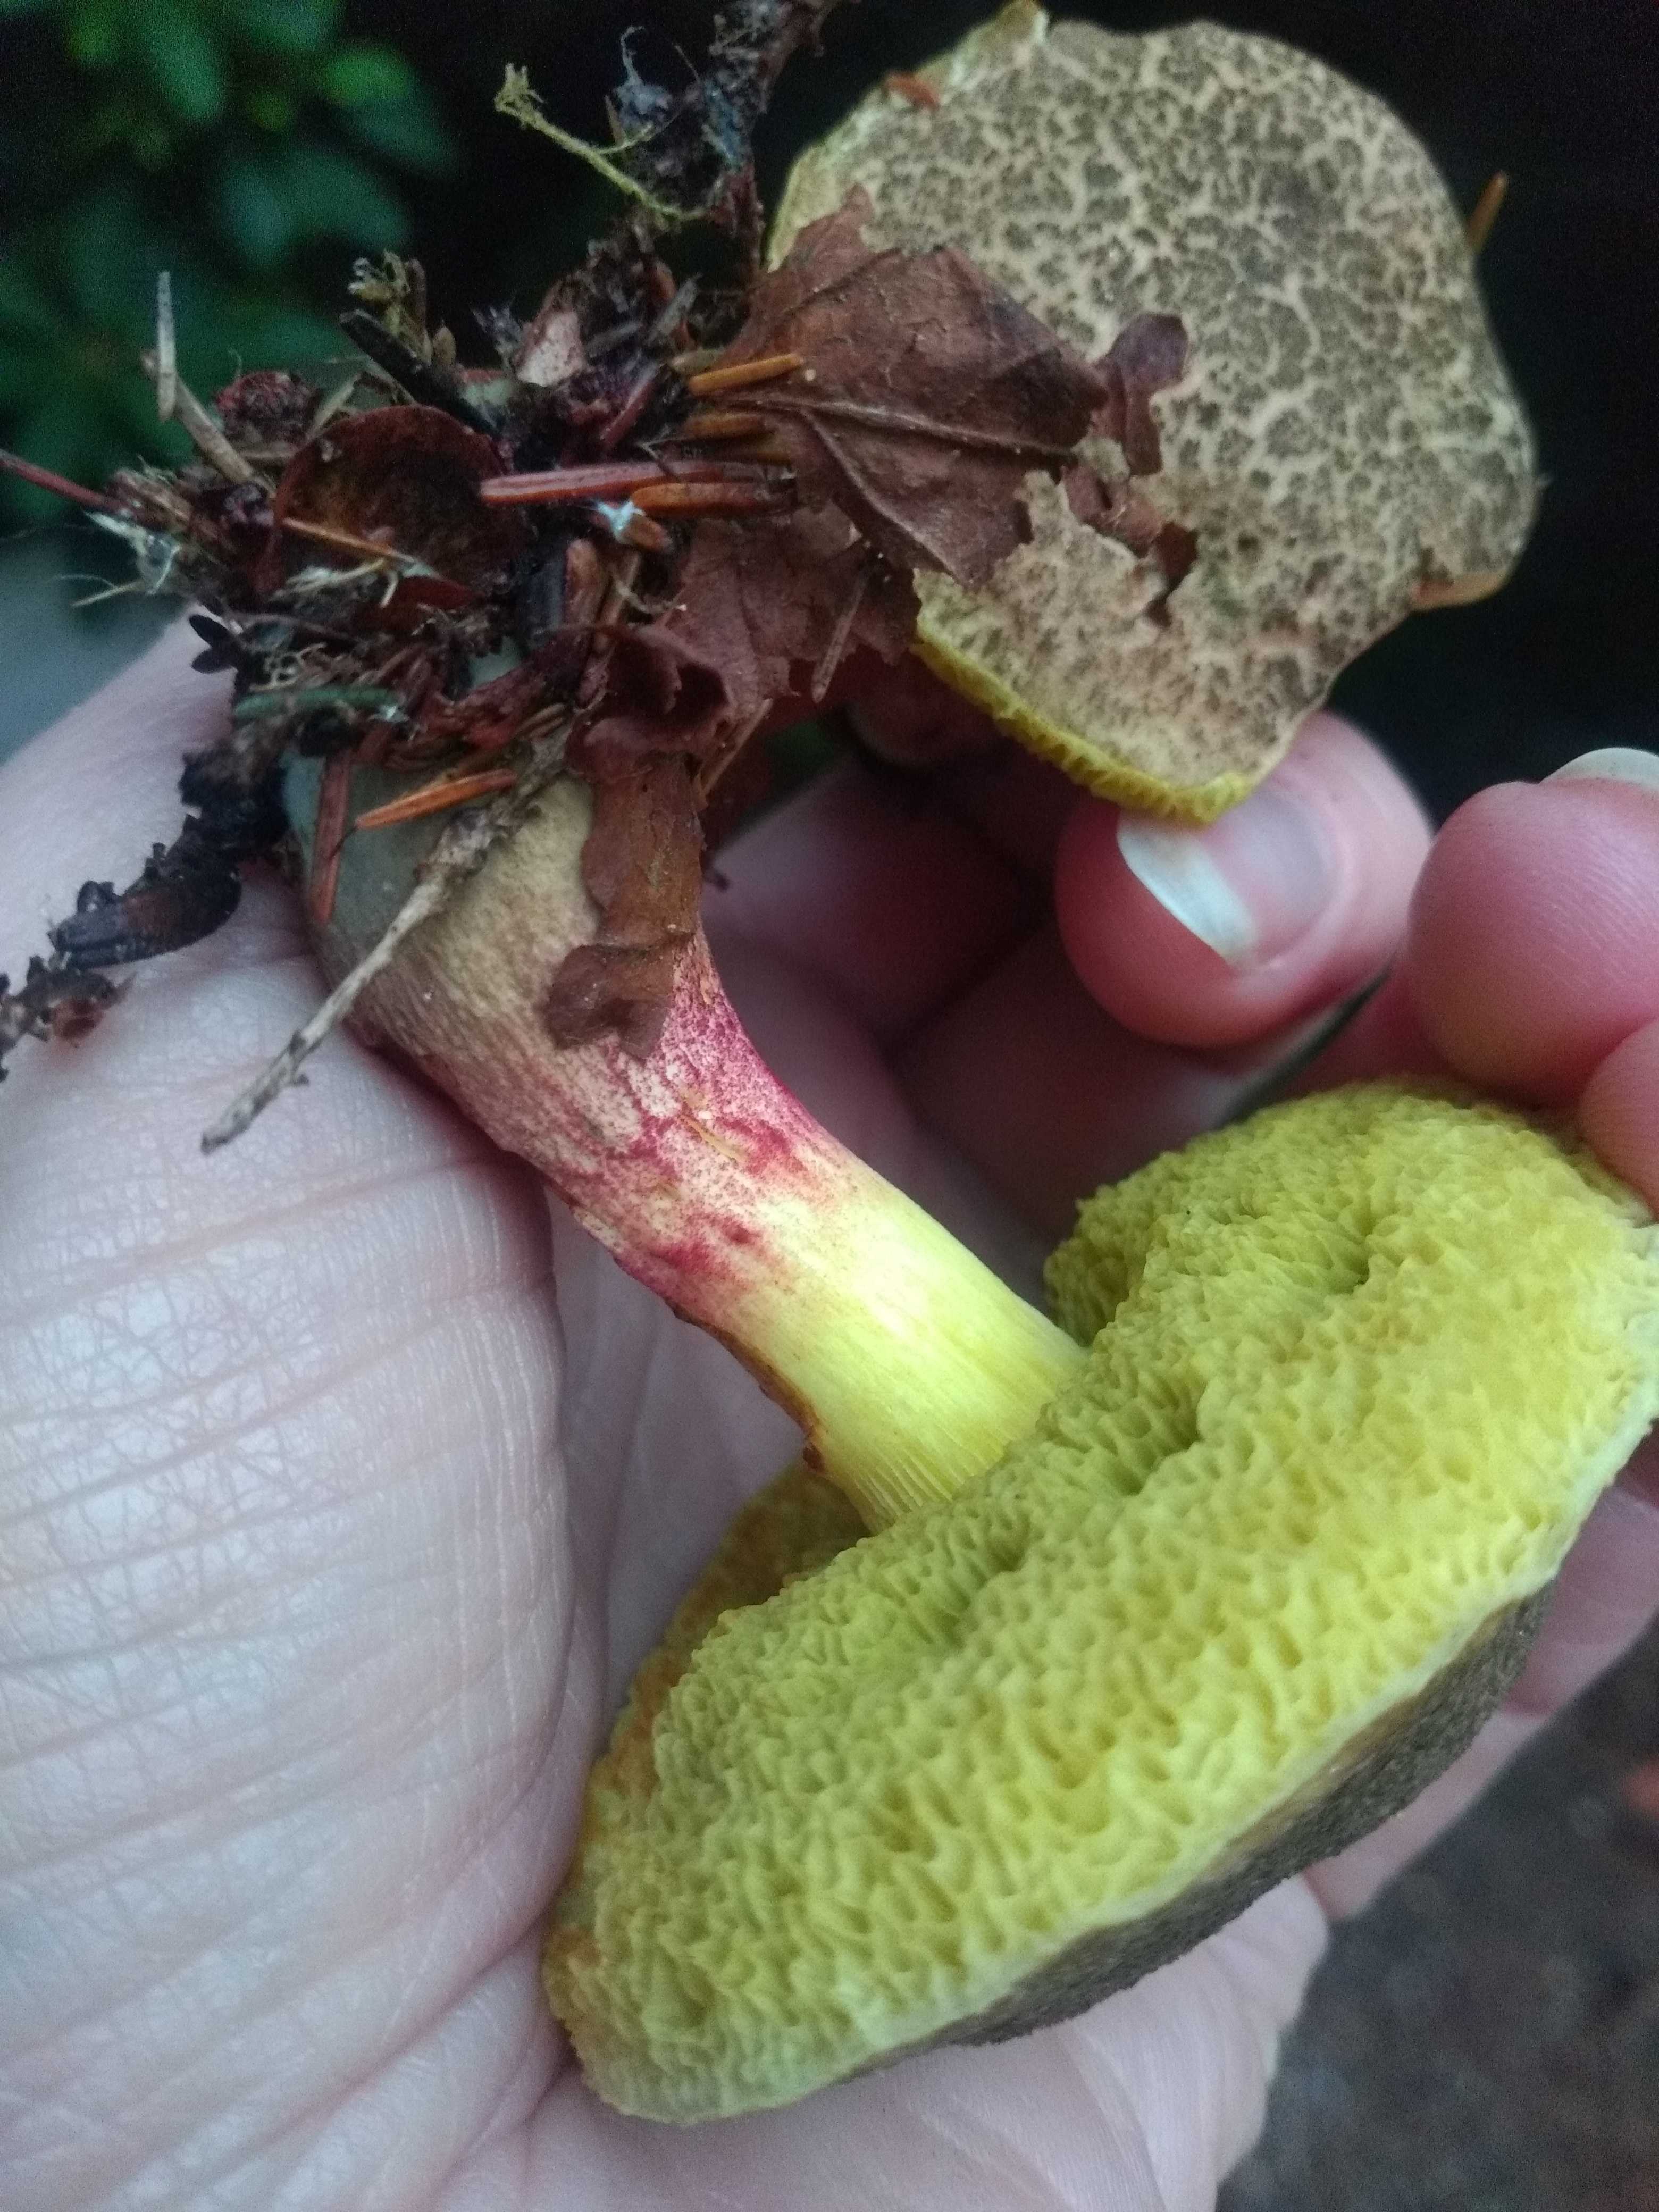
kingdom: Fungi
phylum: Basidiomycota
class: Agaricomycetes
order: Boletales
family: Boletaceae
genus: Xerocomellus
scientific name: Xerocomellus chrysenteron
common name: rødsprukken rørhat
